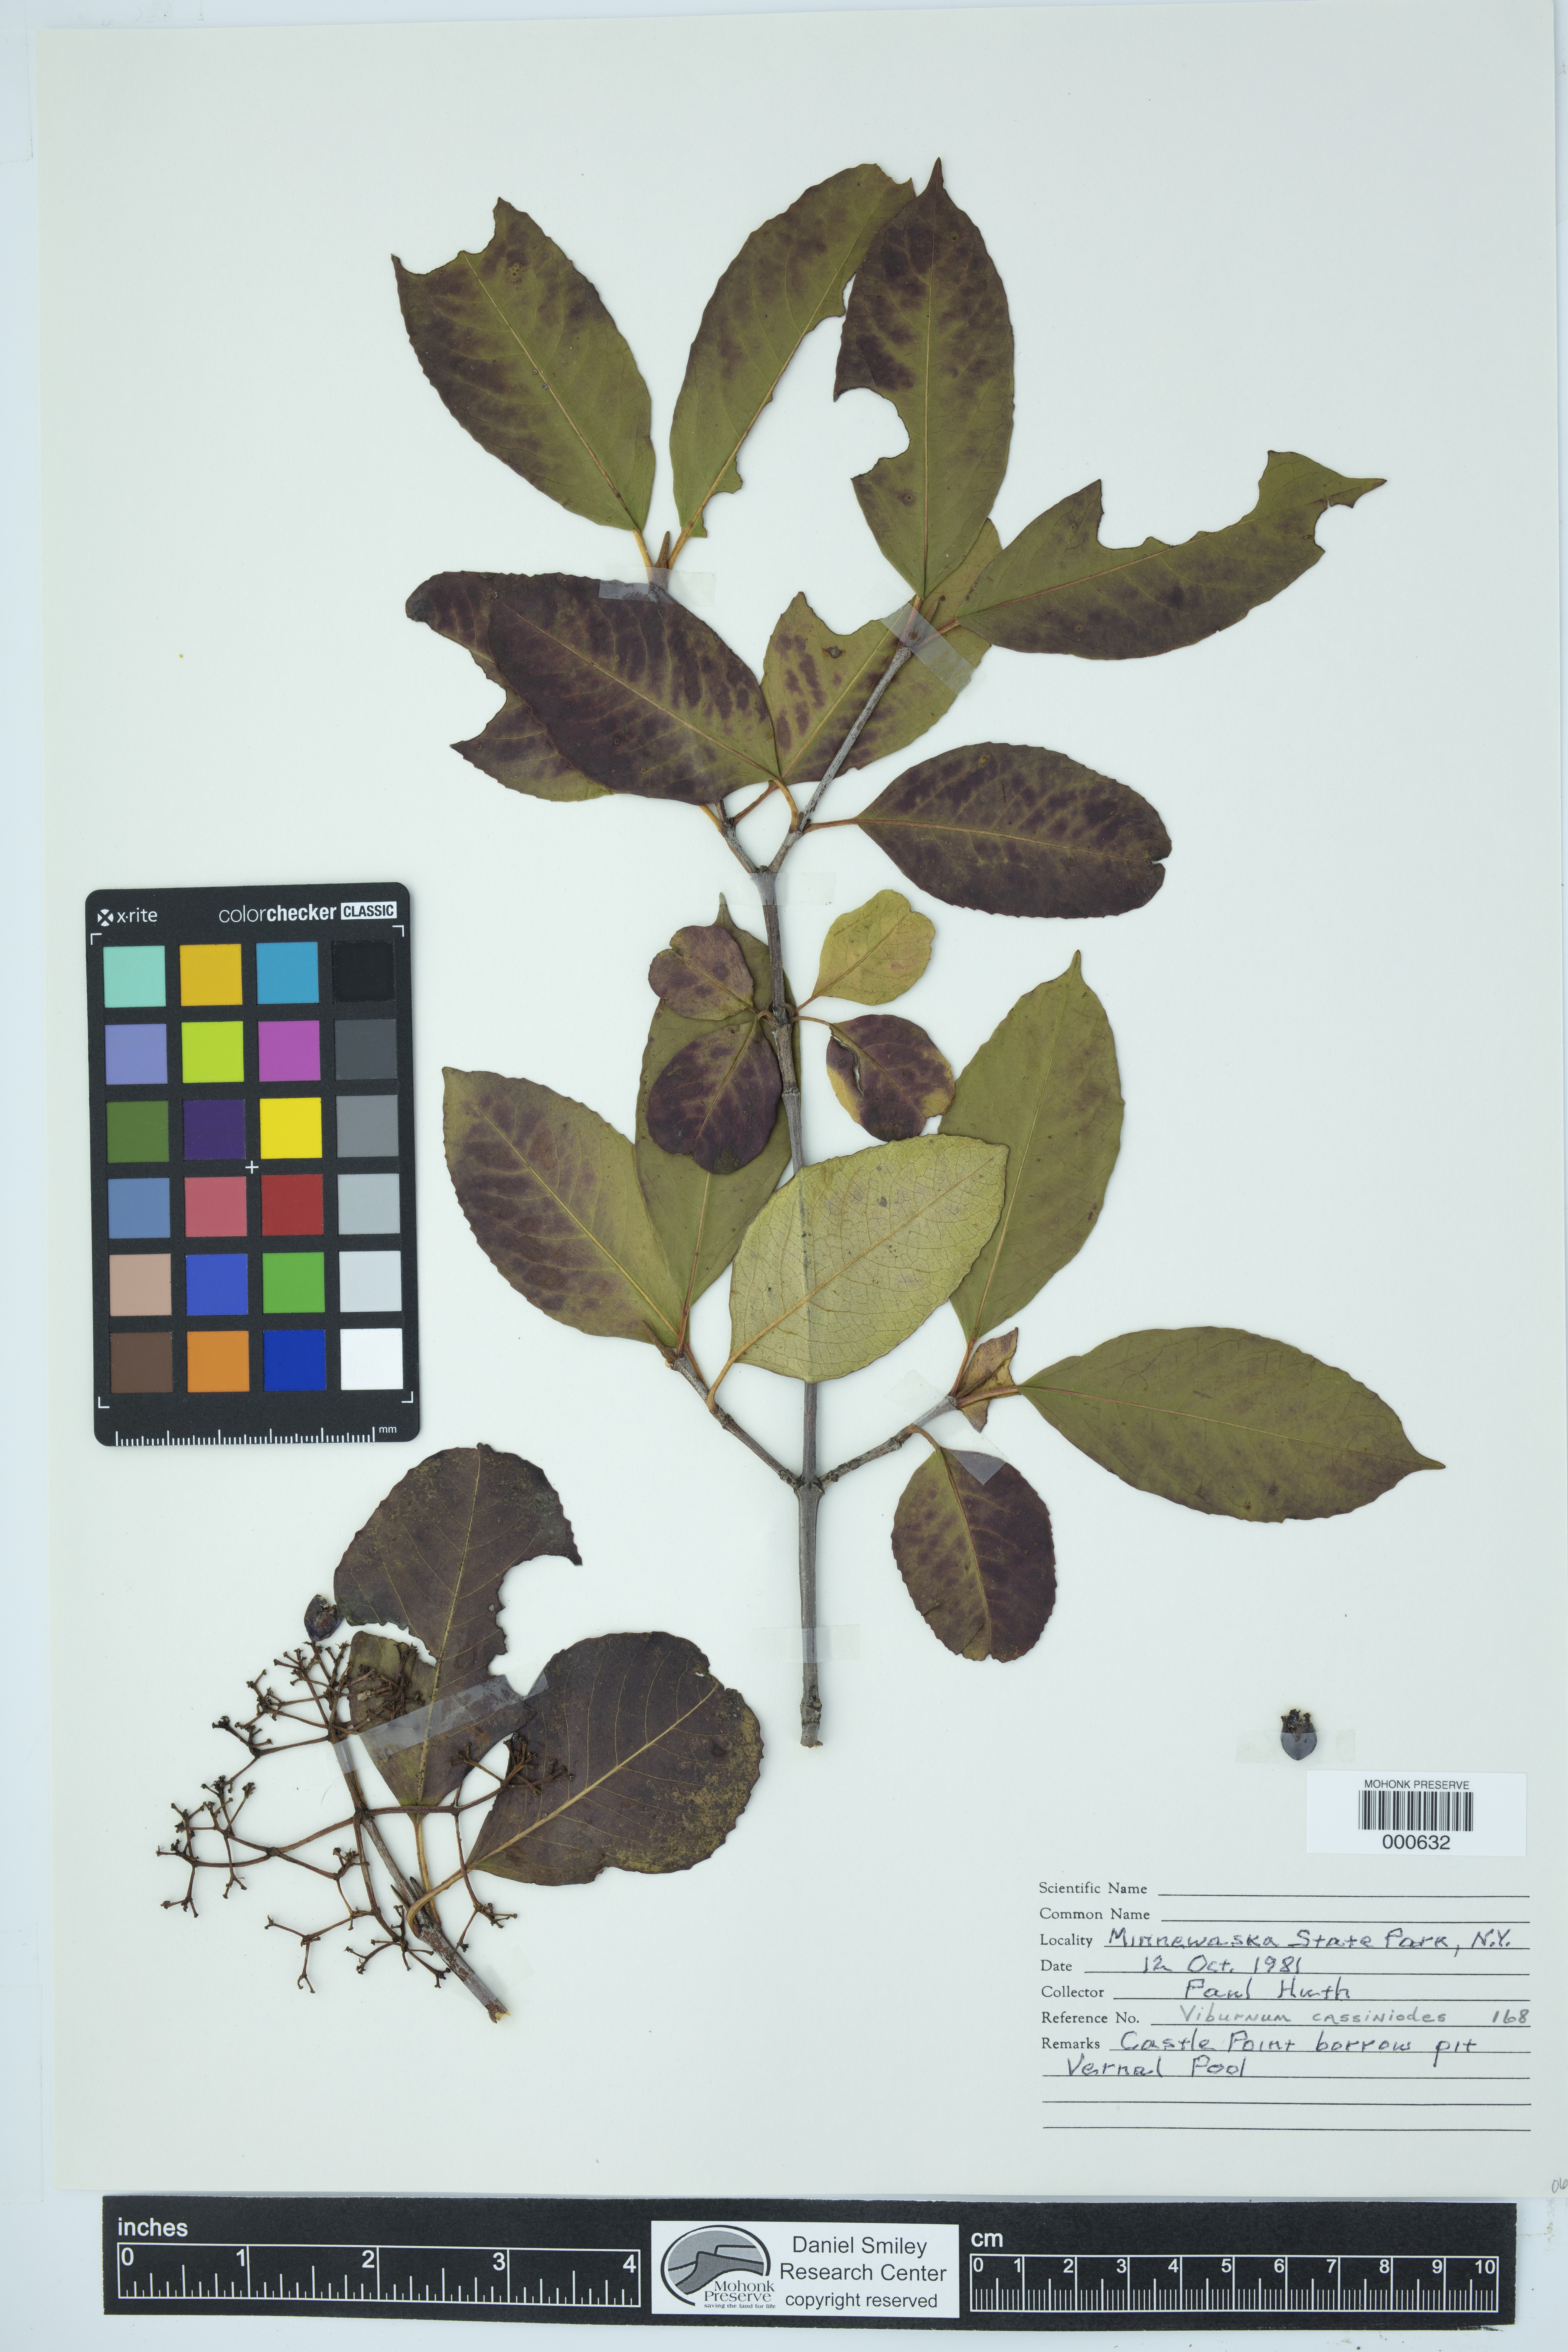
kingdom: Plantae
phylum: Tracheophyta
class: Magnoliopsida
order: Dipsacales
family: Viburnaceae
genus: Viburnum
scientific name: Viburnum nudum
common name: Possum haw
